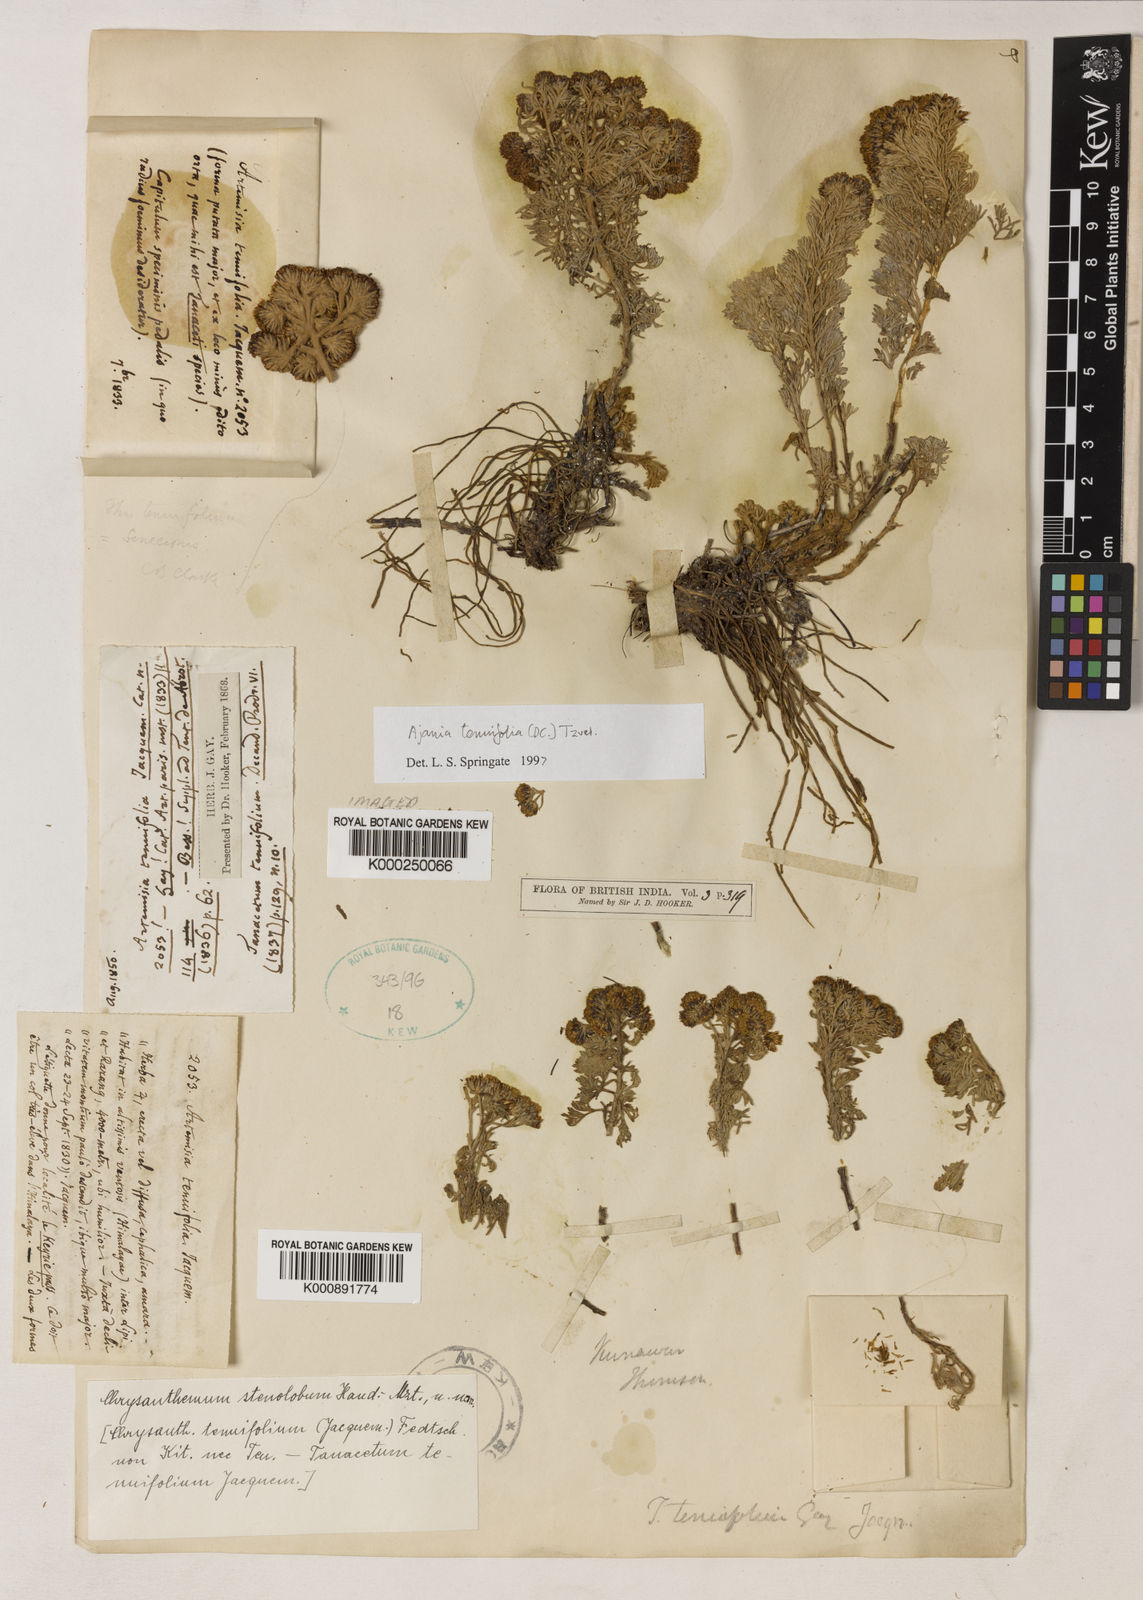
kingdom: Plantae
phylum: Tracheophyta
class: Magnoliopsida
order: Asterales
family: Asteraceae
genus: Ajania
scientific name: Ajania tenuifolia
